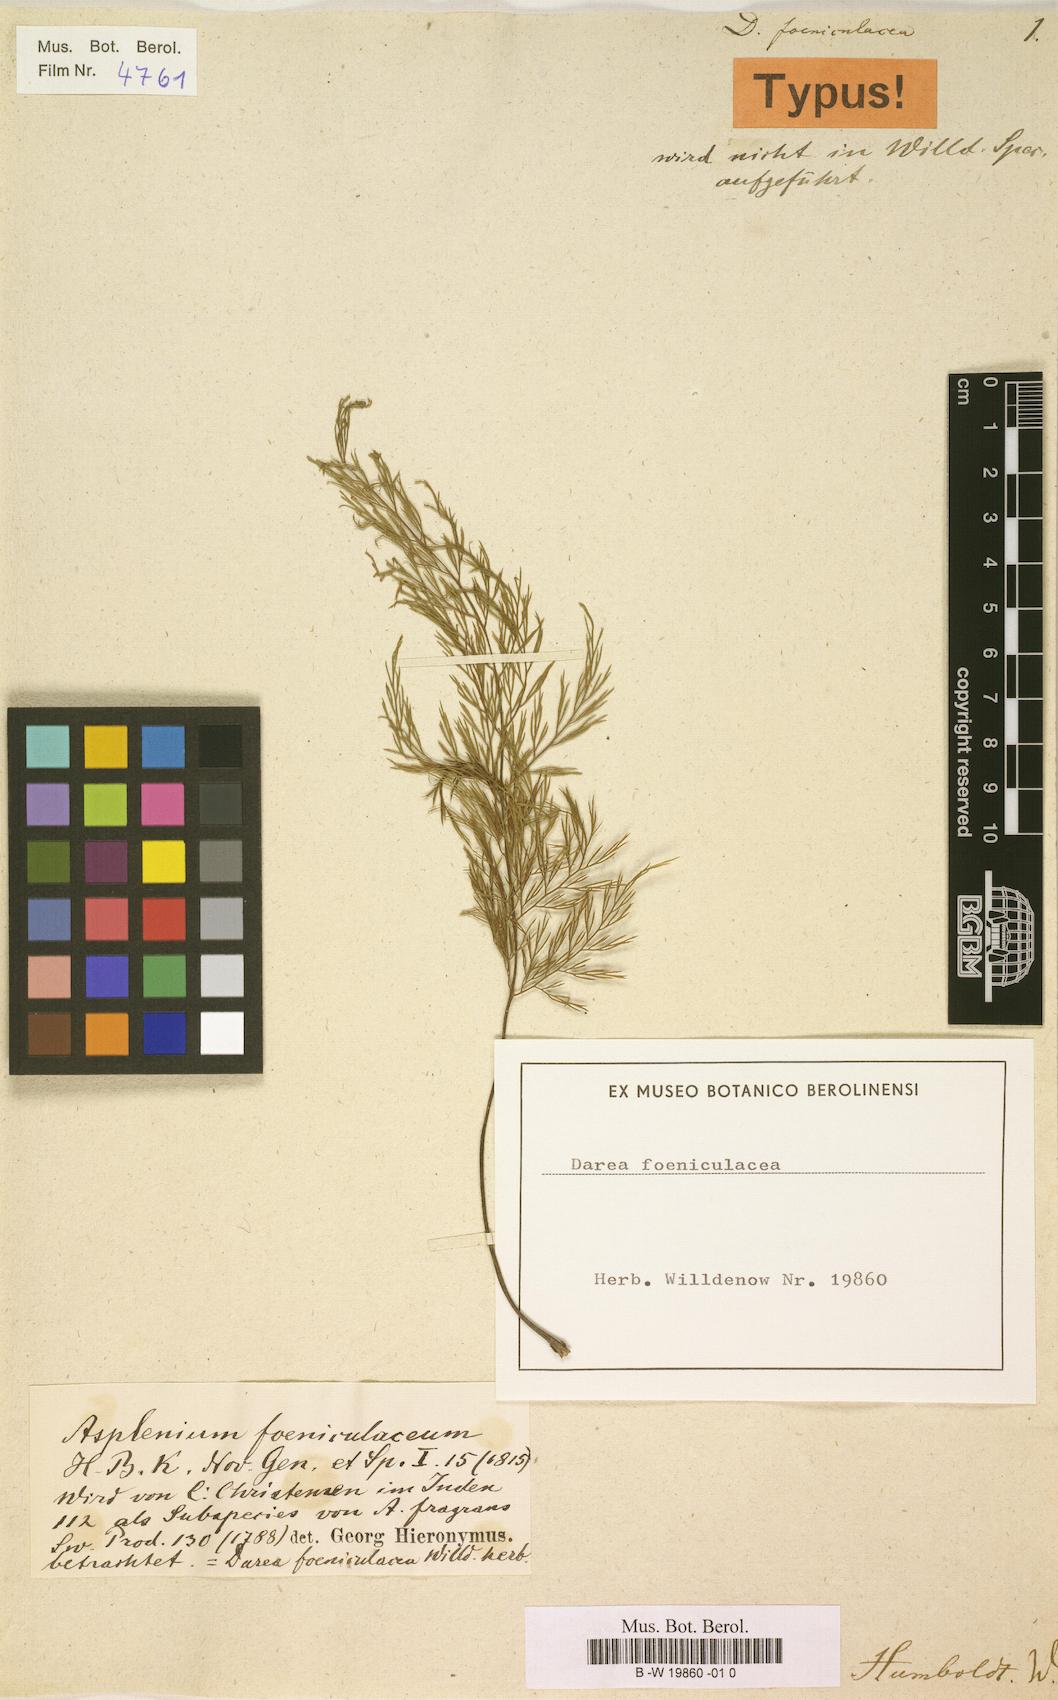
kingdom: Plantae
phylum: Tracheophyta
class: Polypodiopsida
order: Polypodiales
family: Aspleniaceae
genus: Asplenium
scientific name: Asplenium
